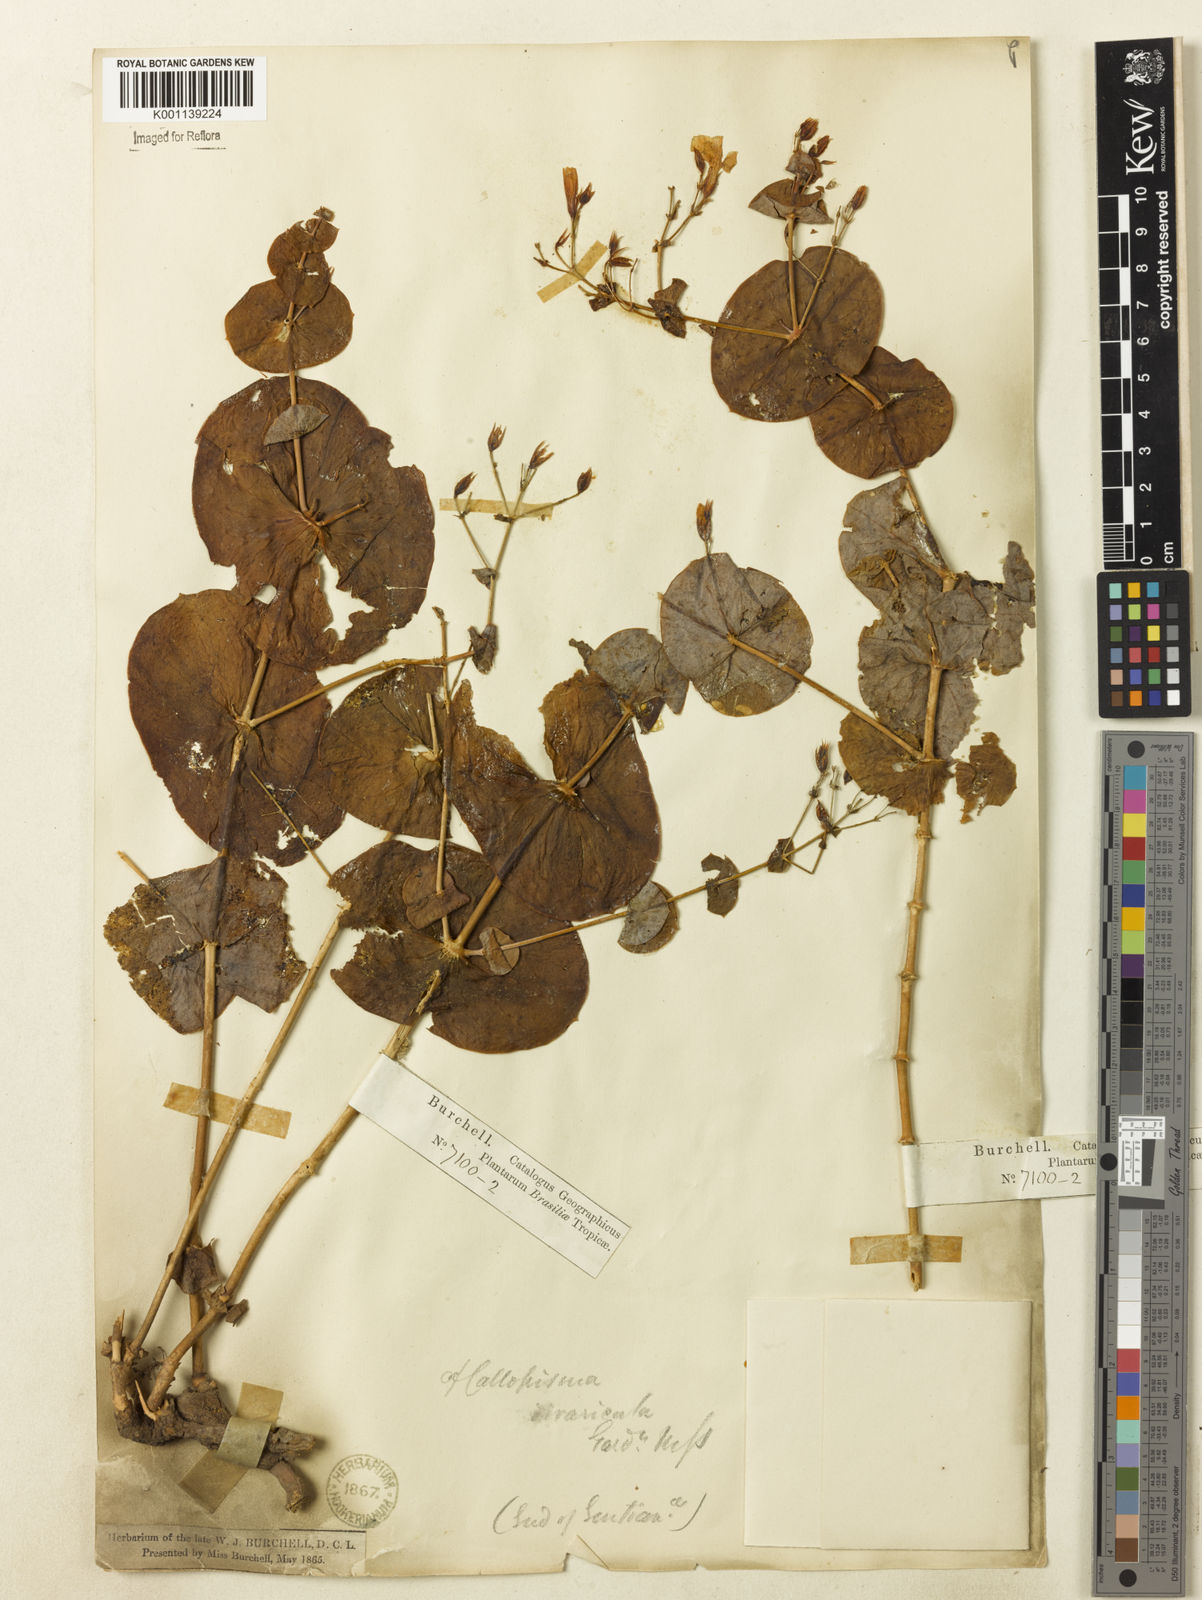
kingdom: Plantae
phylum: Tracheophyta
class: Magnoliopsida
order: Gentianales
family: Gentianaceae
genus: Symphyllophyton
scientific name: Symphyllophyton caprifolioides
